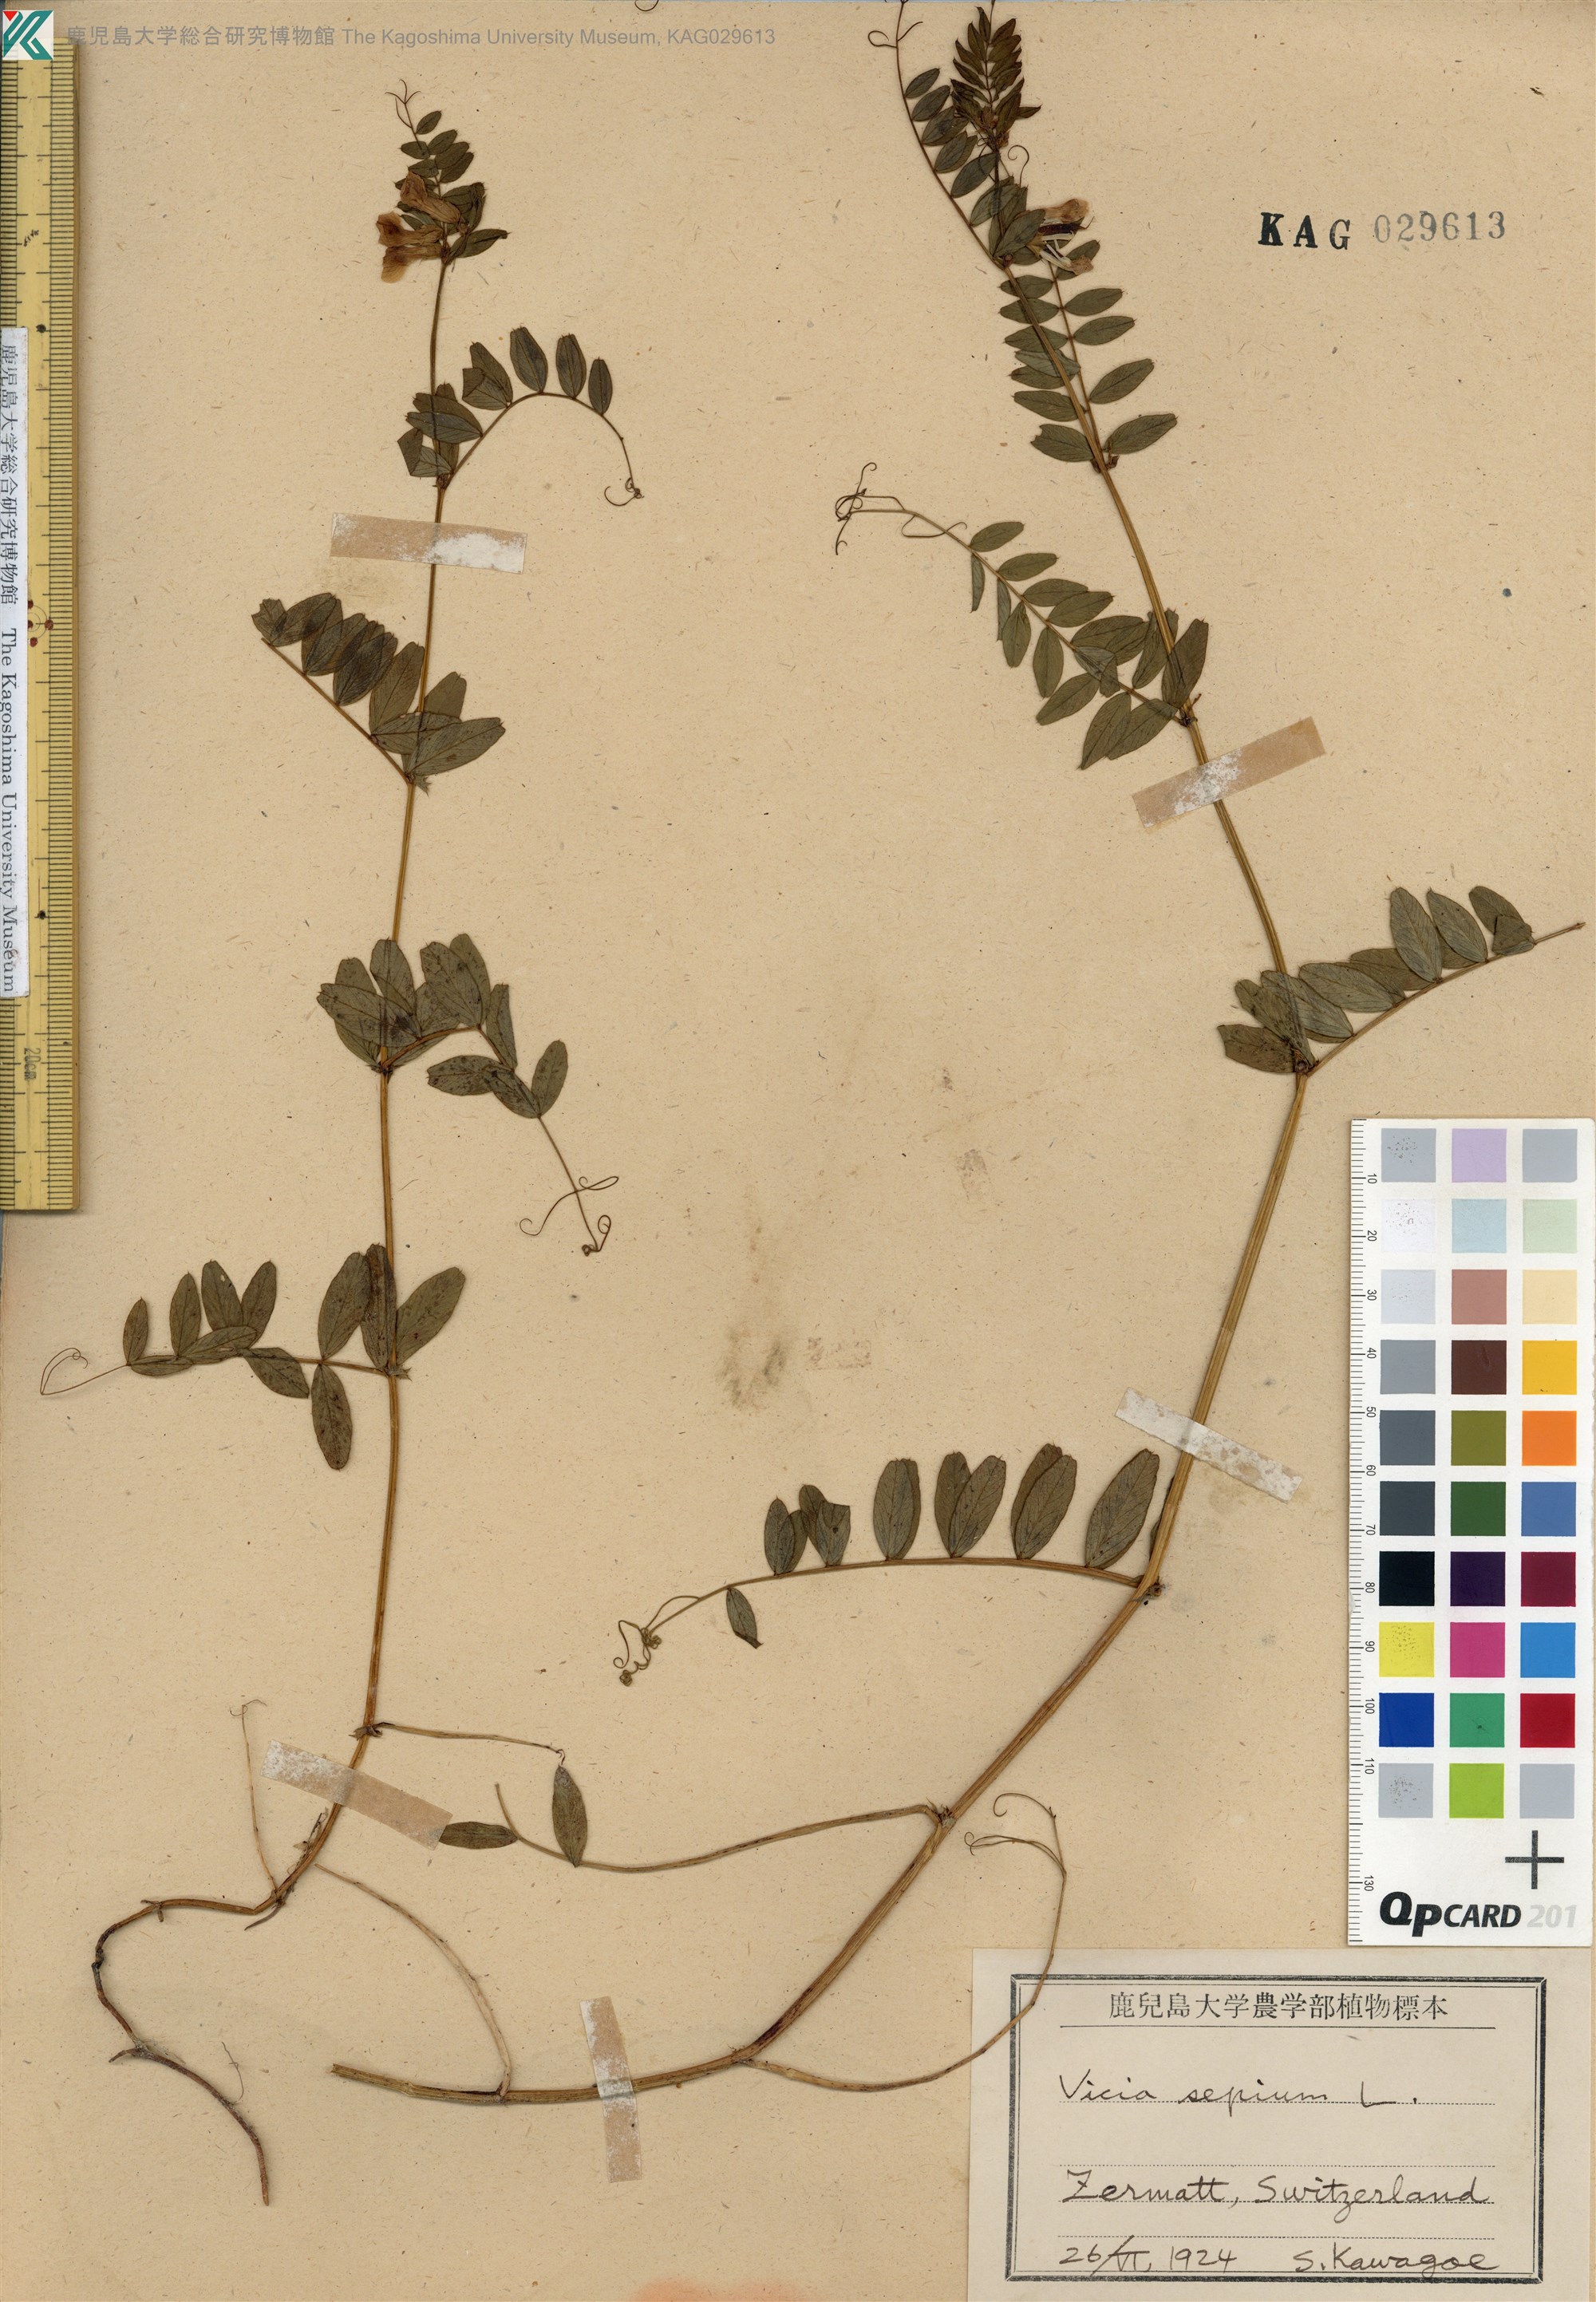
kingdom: Plantae
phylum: Tracheophyta
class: Magnoliopsida
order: Fabales
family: Fabaceae
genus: Vicia
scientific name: Vicia sepium
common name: Bush vetch
